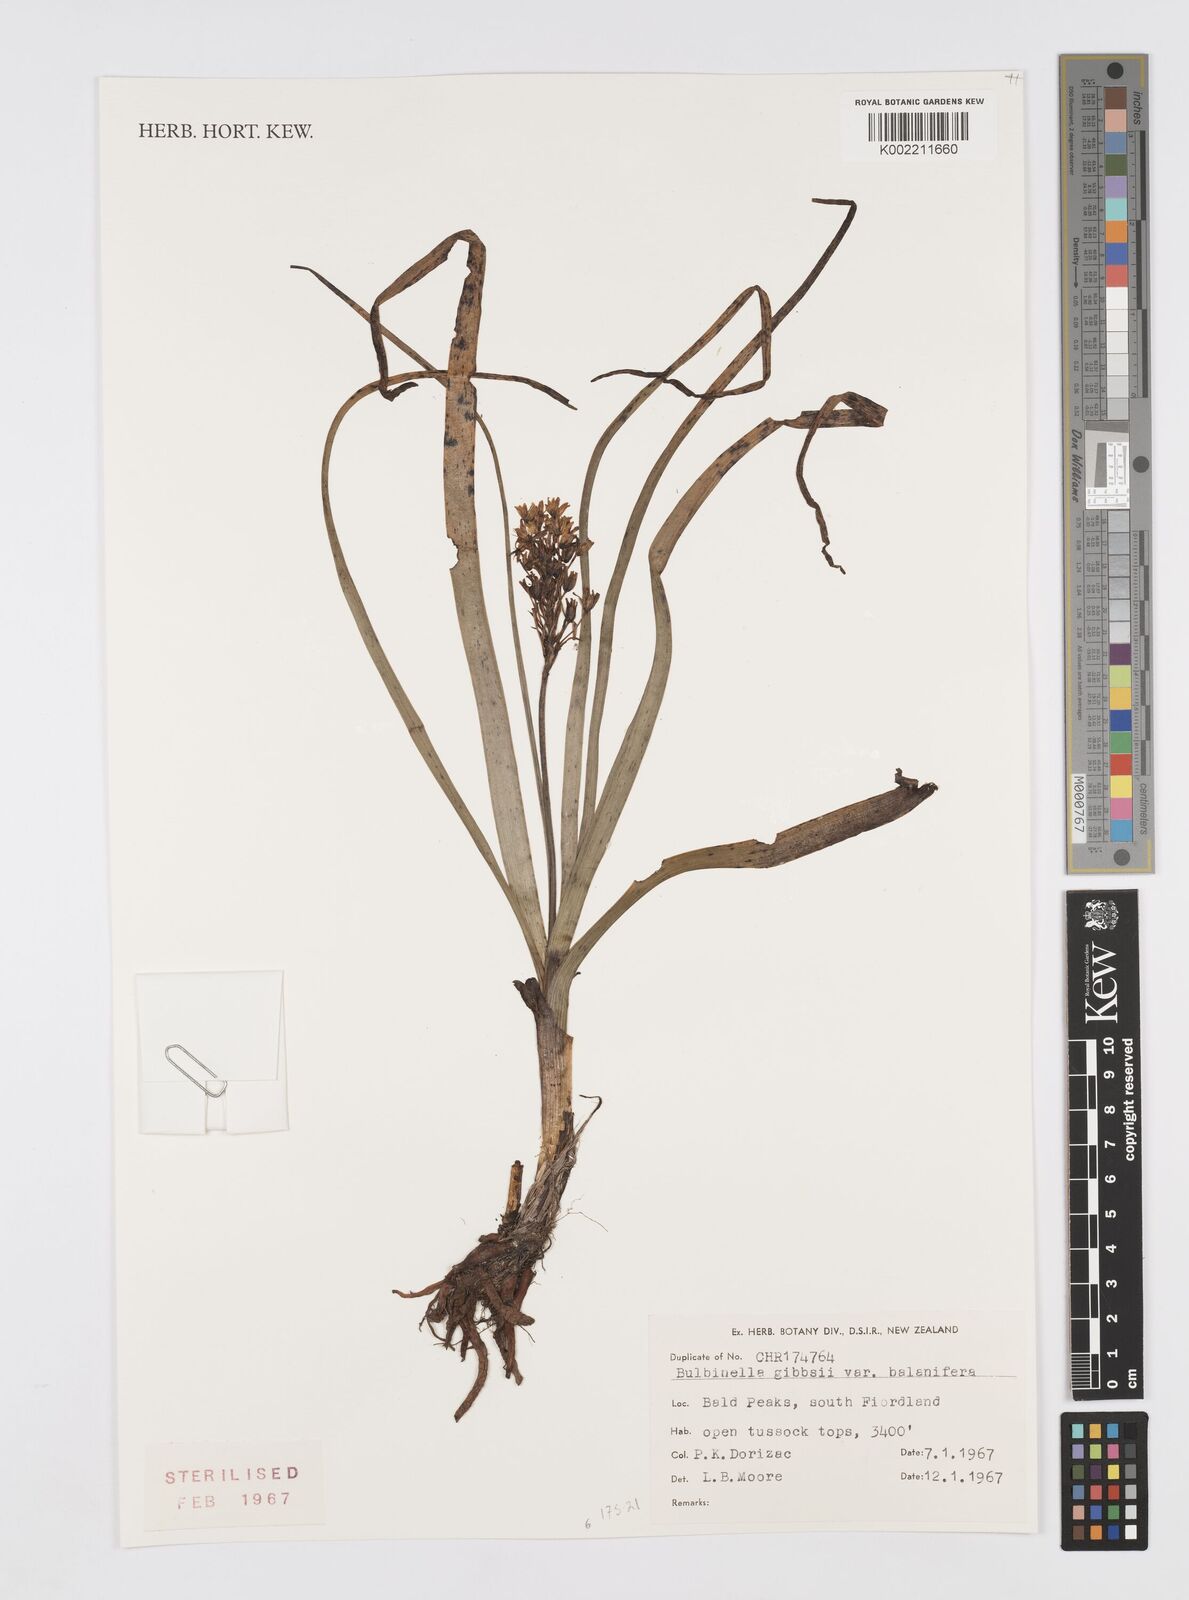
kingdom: Plantae
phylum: Tracheophyta
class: Liliopsida
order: Asparagales
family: Asphodelaceae
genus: Bulbinella
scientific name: Bulbinella gibbsii
